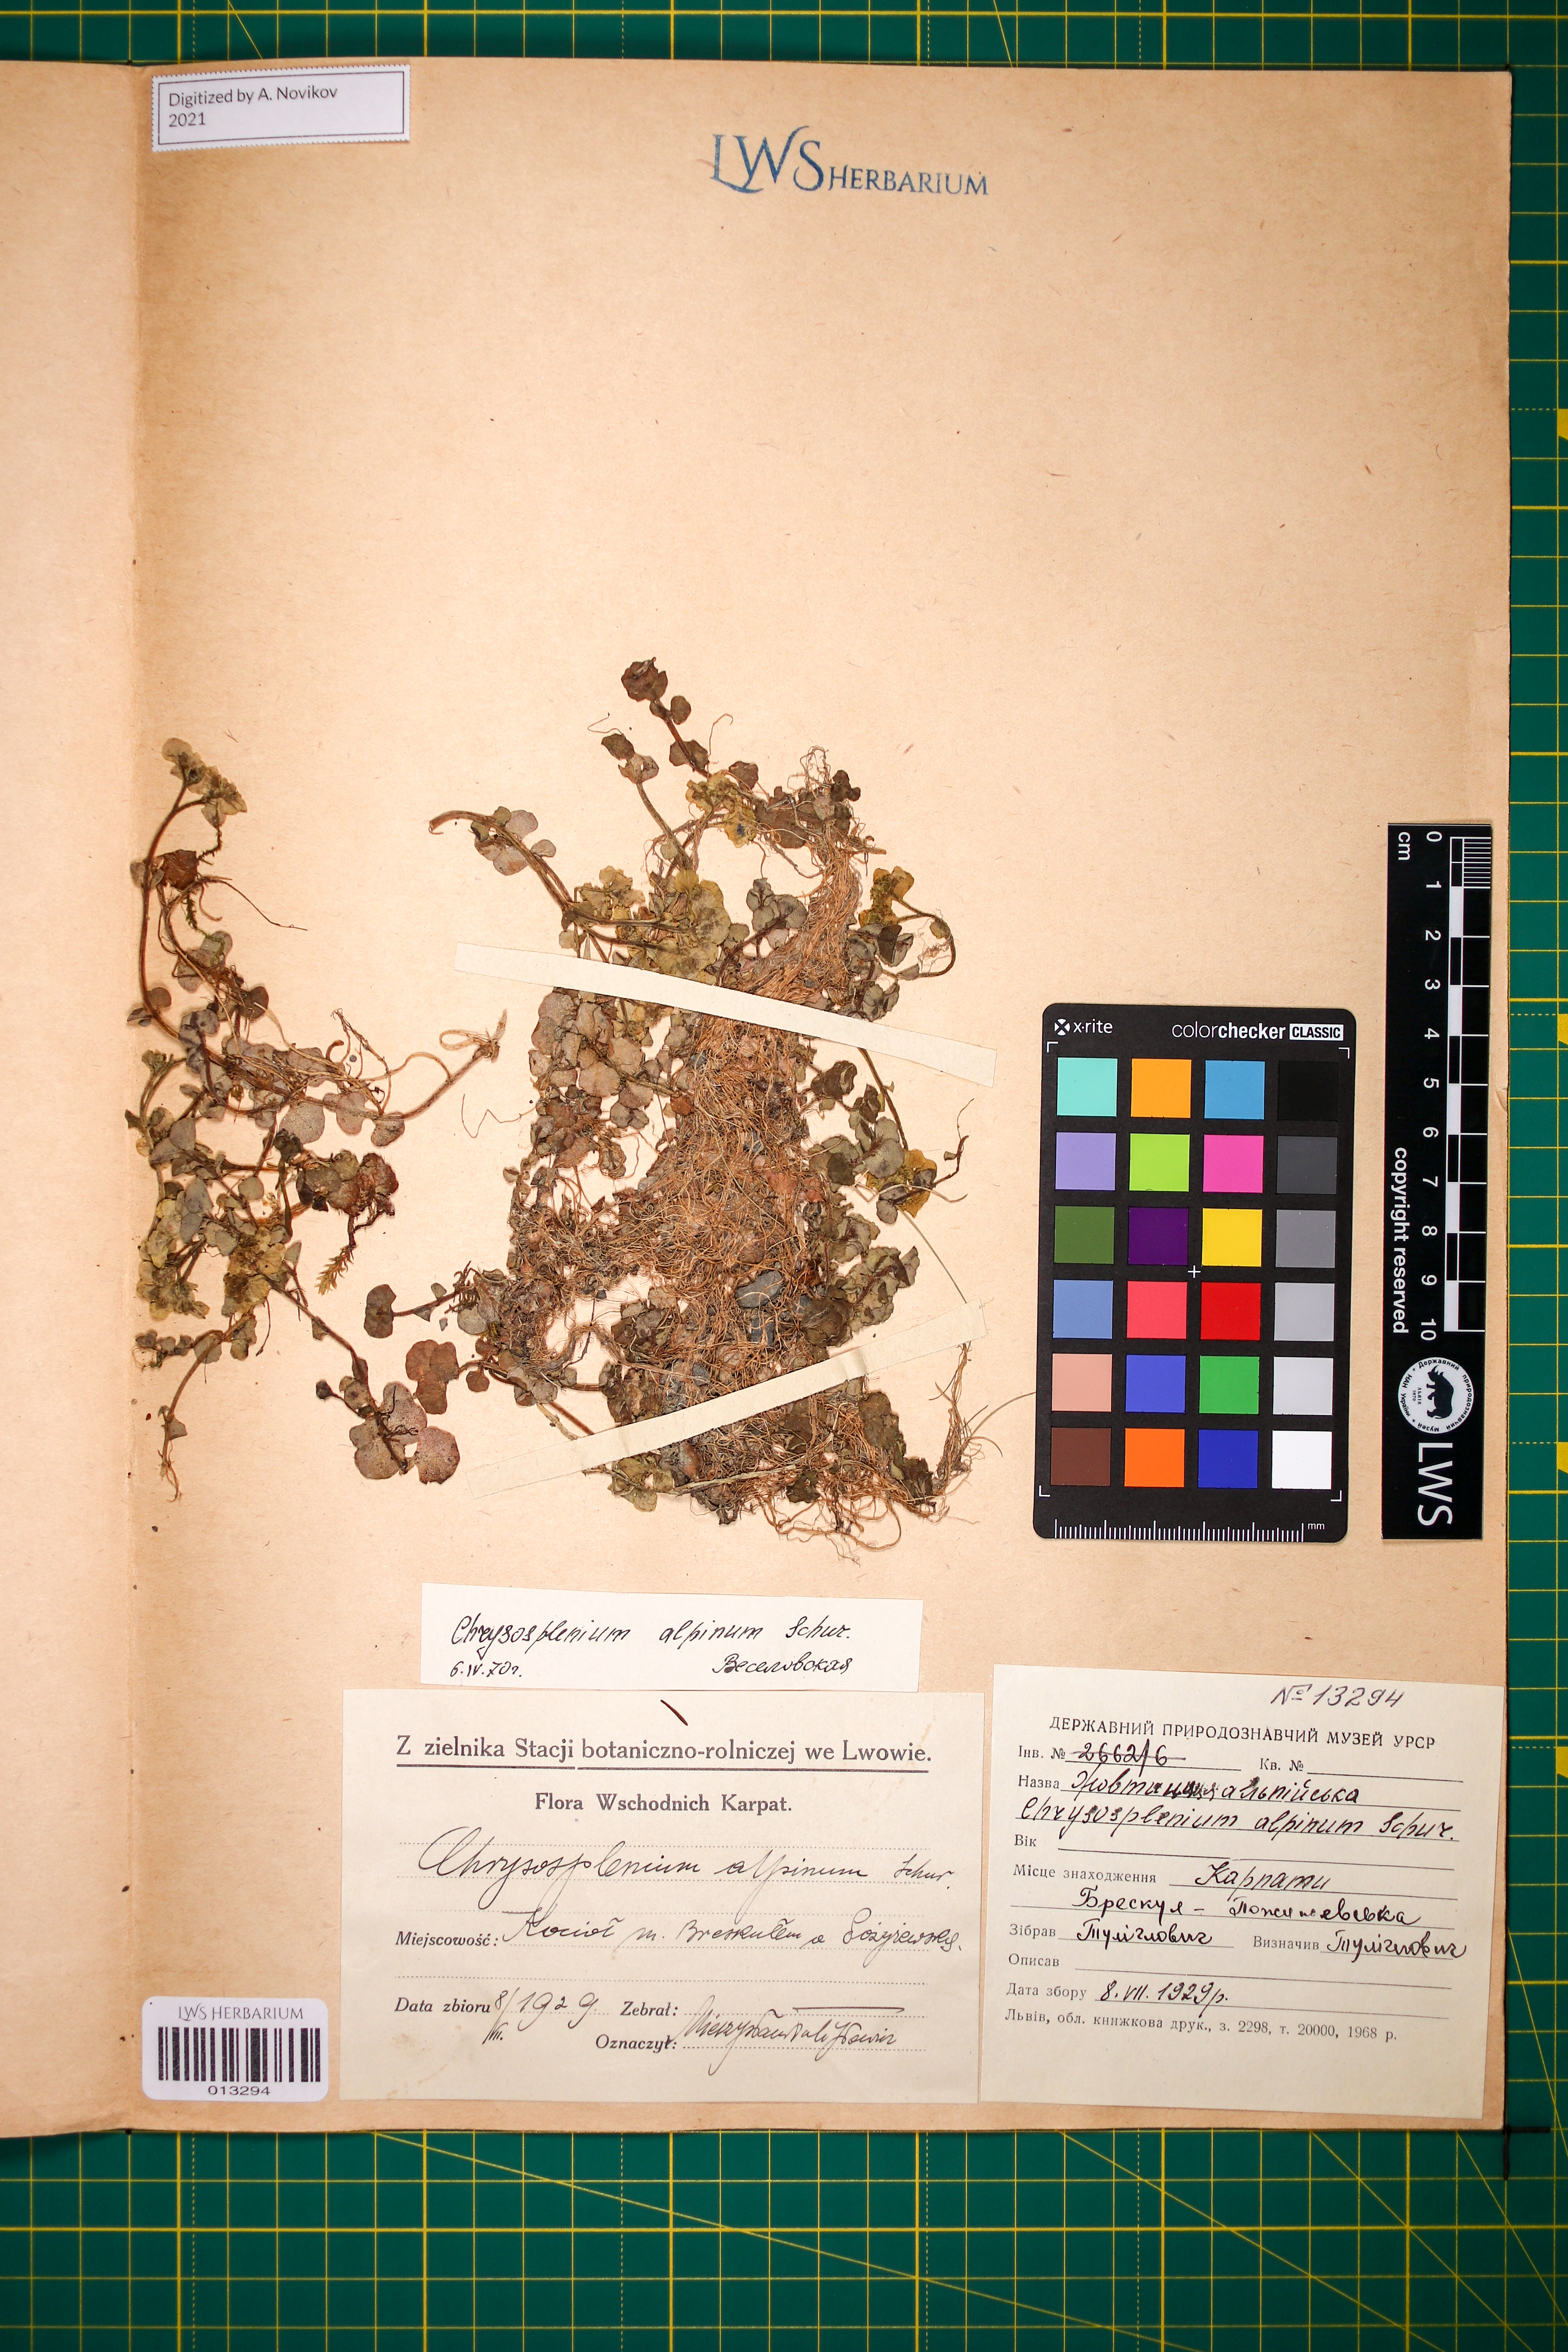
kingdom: Plantae
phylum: Tracheophyta
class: Magnoliopsida
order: Saxifragales
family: Saxifragaceae
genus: Chrysosplenium
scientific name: Chrysosplenium alpinum
